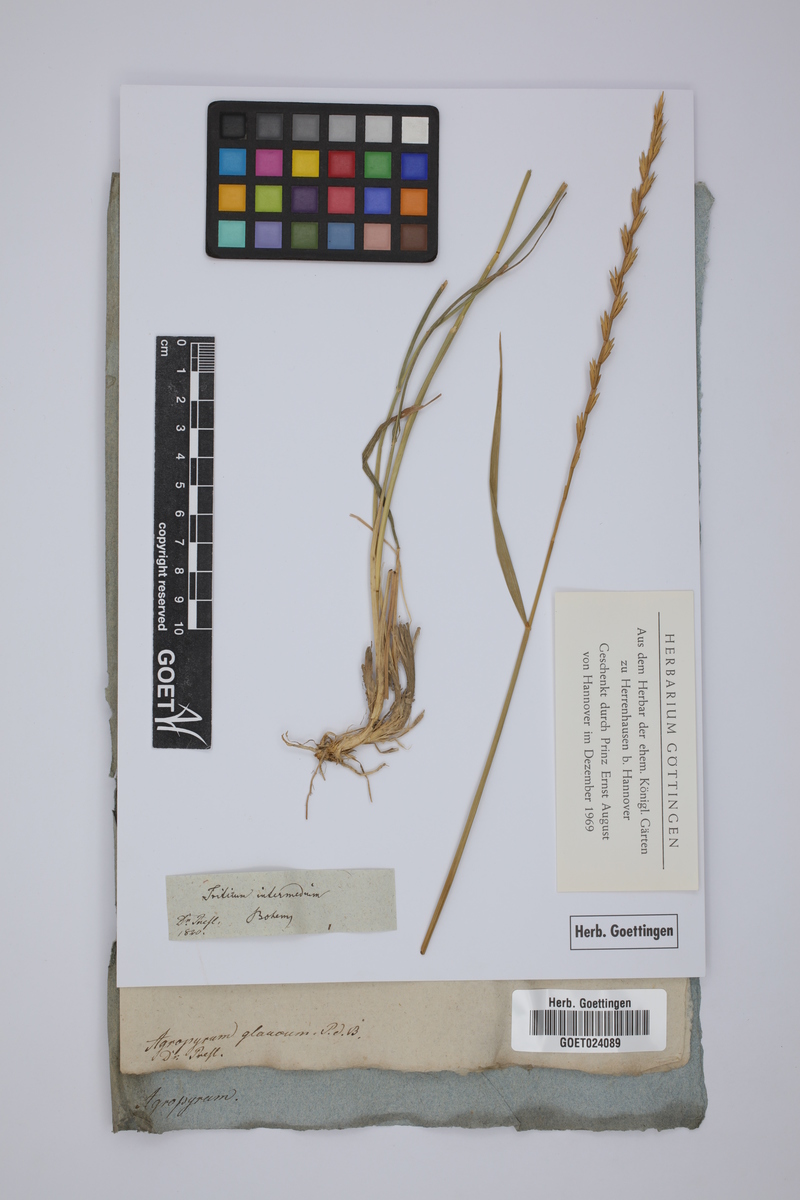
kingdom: Plantae
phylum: Tracheophyta
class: Liliopsida
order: Poales
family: Poaceae
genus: Thinopyrum
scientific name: Thinopyrum intermedium
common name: Intermediate wheatgrass
